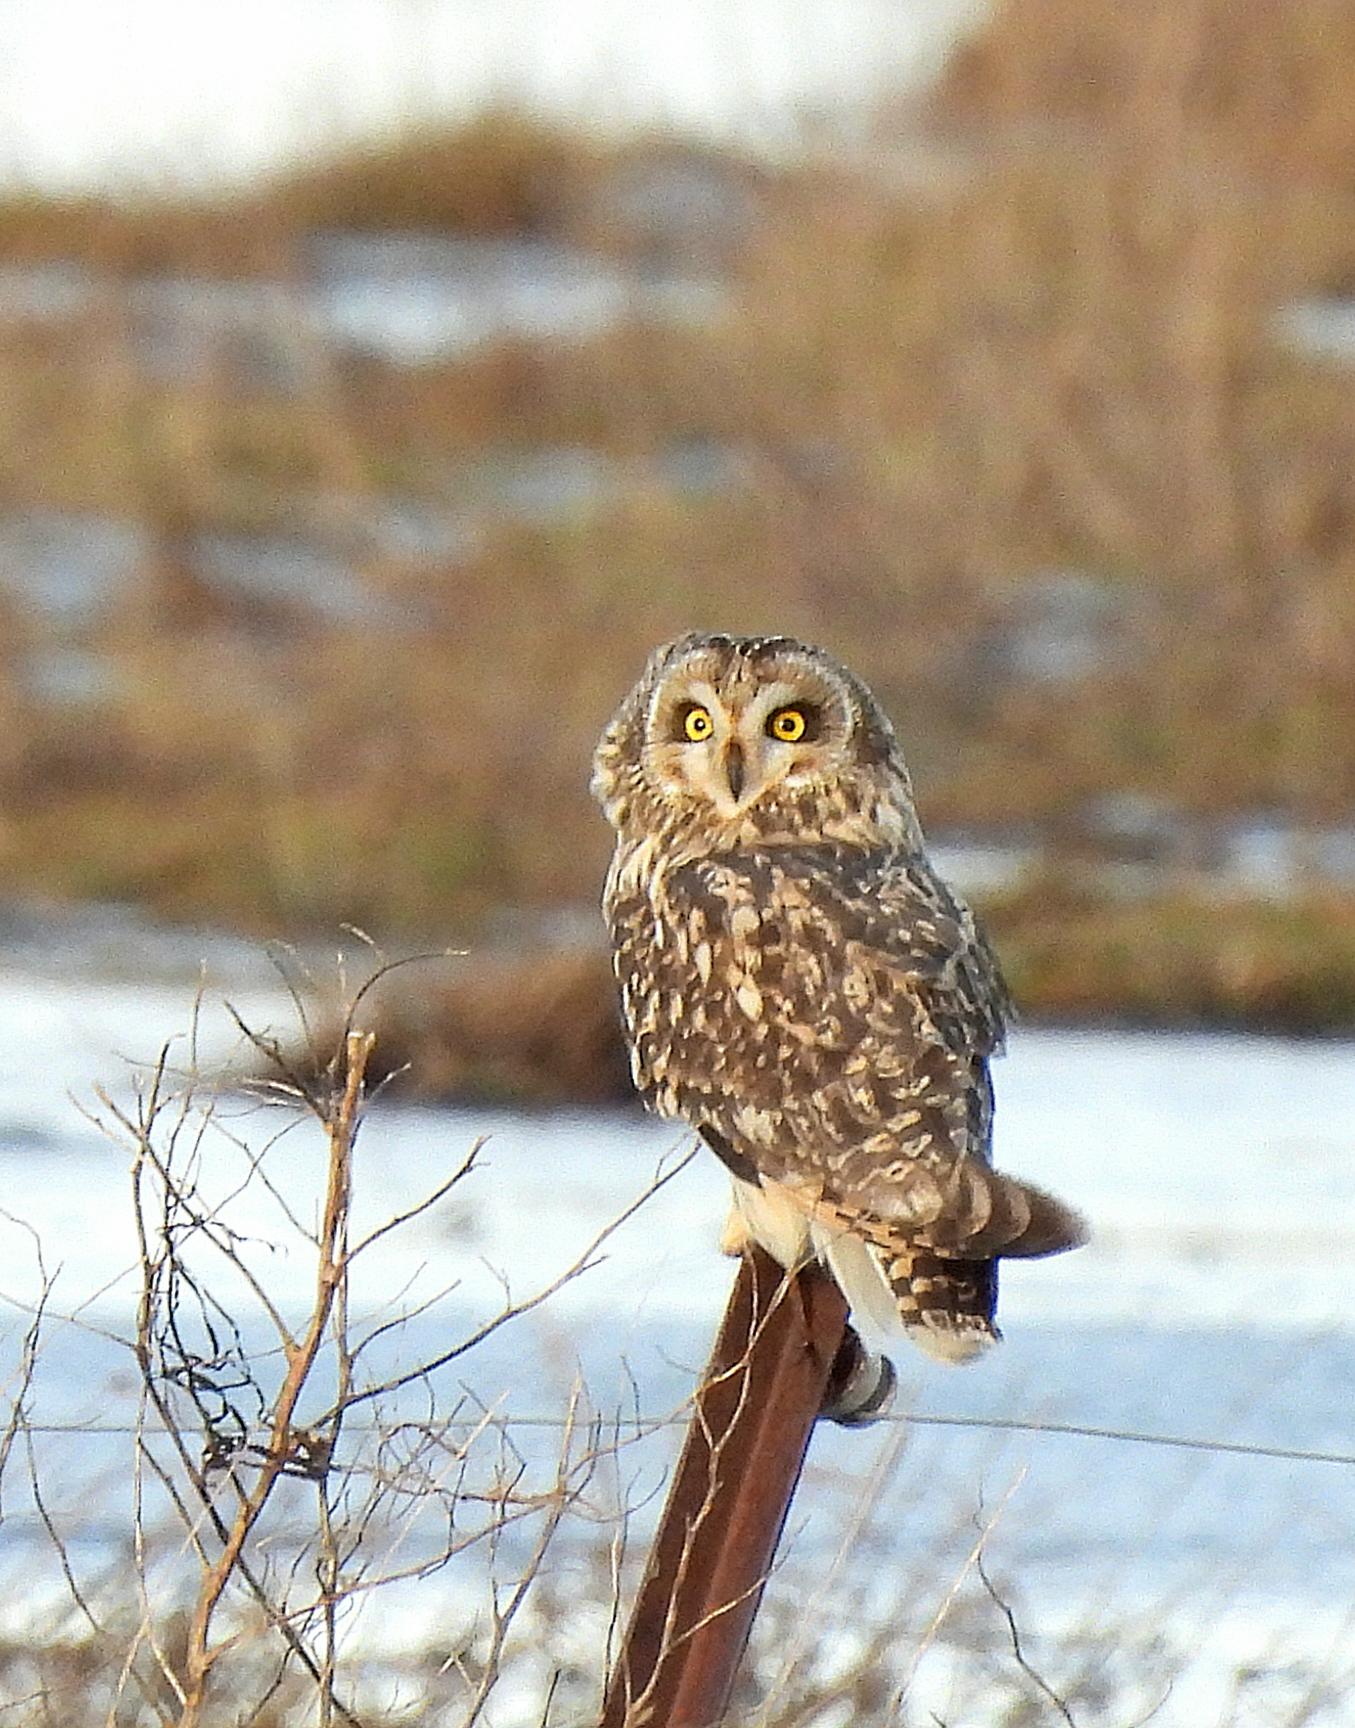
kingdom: Animalia
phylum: Chordata
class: Aves
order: Strigiformes
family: Strigidae
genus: Asio
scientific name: Asio flammeus
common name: Mosehornugle
